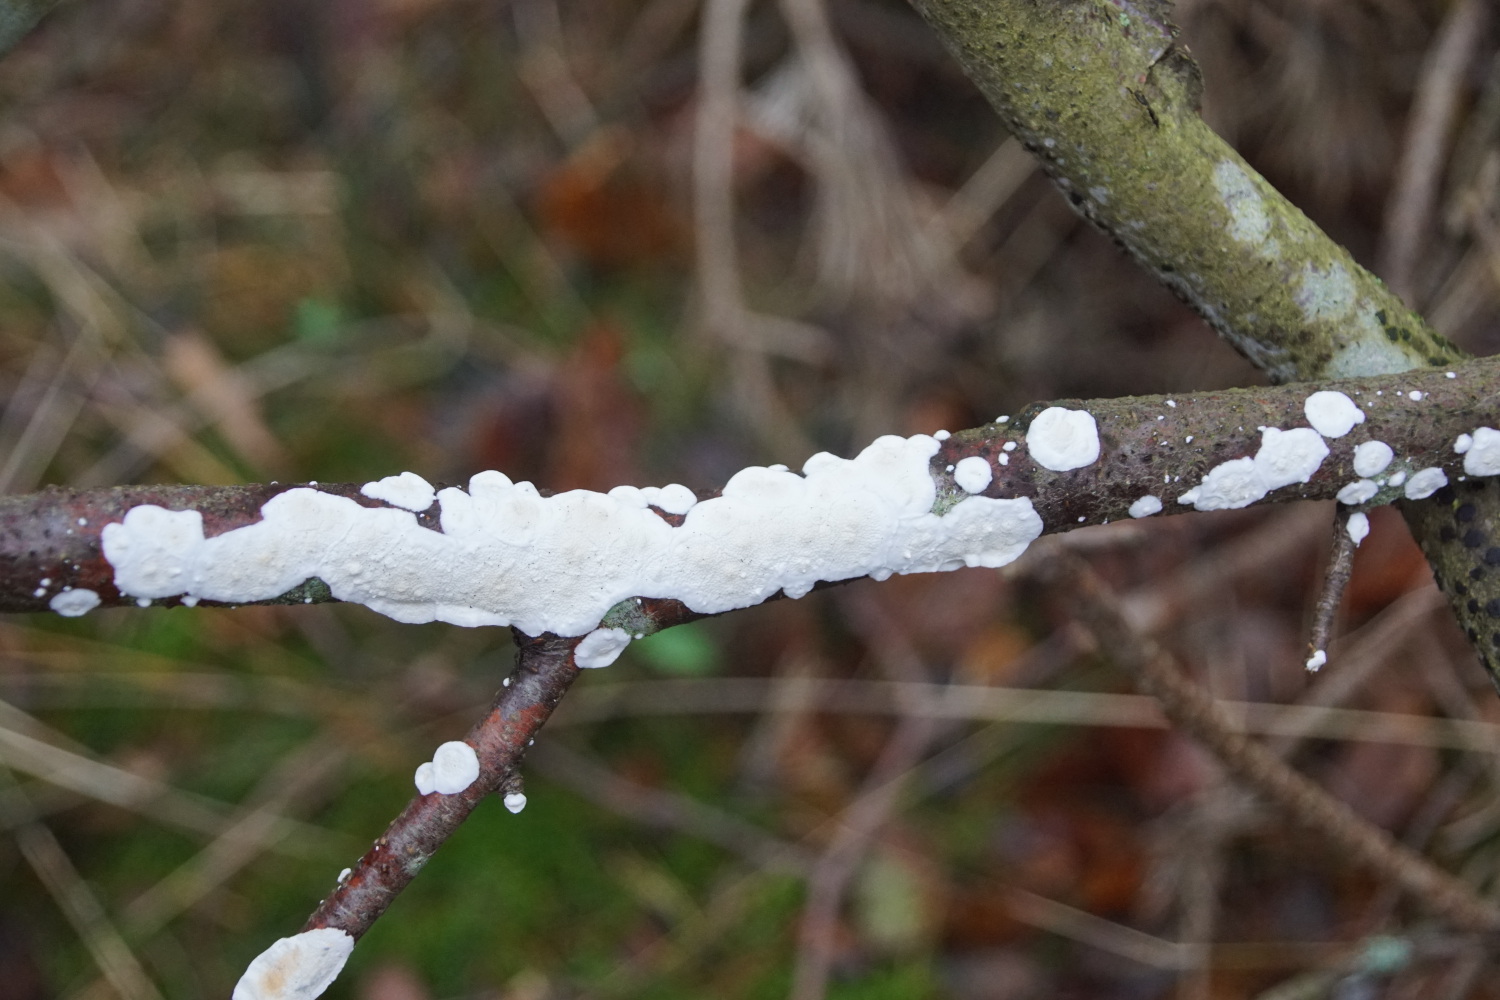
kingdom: Fungi
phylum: Basidiomycota
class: Agaricomycetes
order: Polyporales
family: Irpicaceae
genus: Byssomerulius
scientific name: Byssomerulius corium
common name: læder-åresvamp
